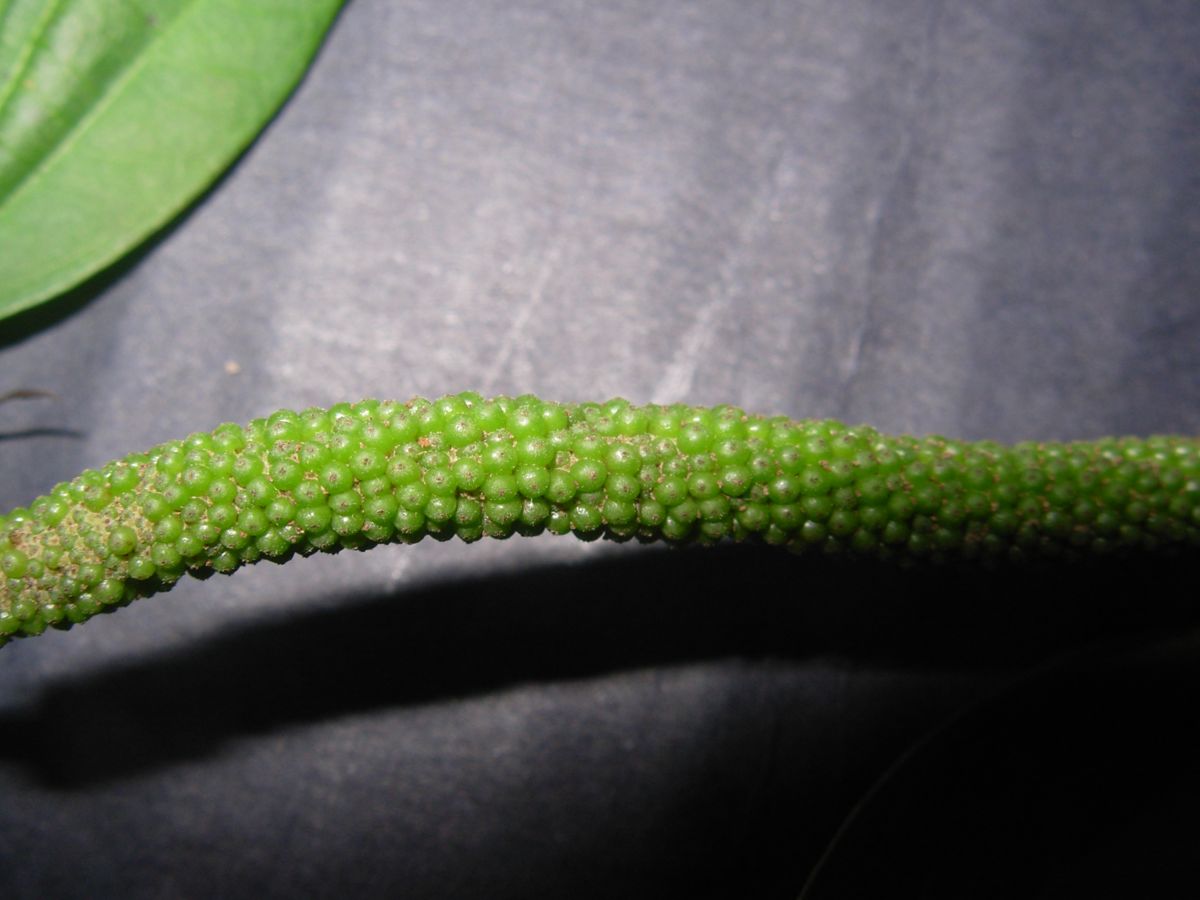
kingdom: Plantae
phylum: Tracheophyta
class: Magnoliopsida
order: Piperales
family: Piperaceae
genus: Piper
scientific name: Piper patulum
